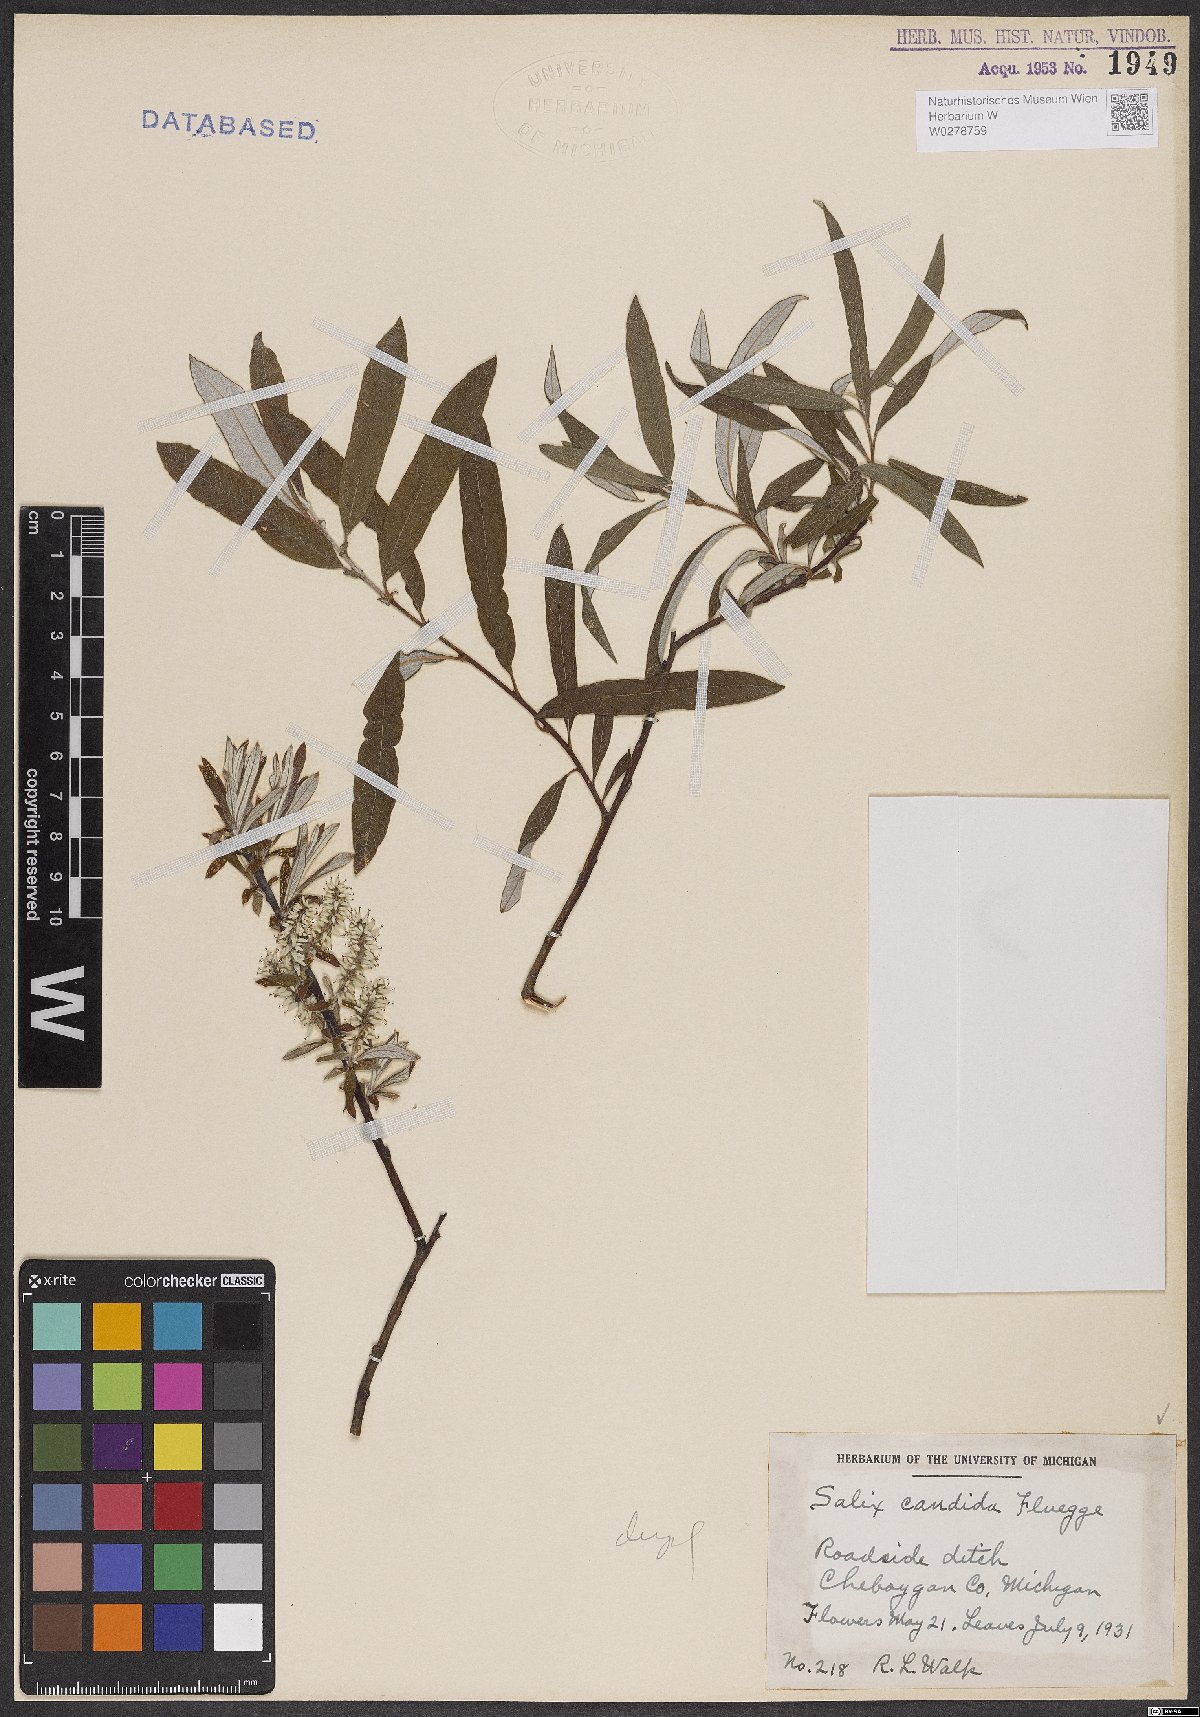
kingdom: Plantae
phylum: Tracheophyta
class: Magnoliopsida
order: Malpighiales
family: Salicaceae
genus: Salix
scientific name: Salix candida
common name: Hoary willow
